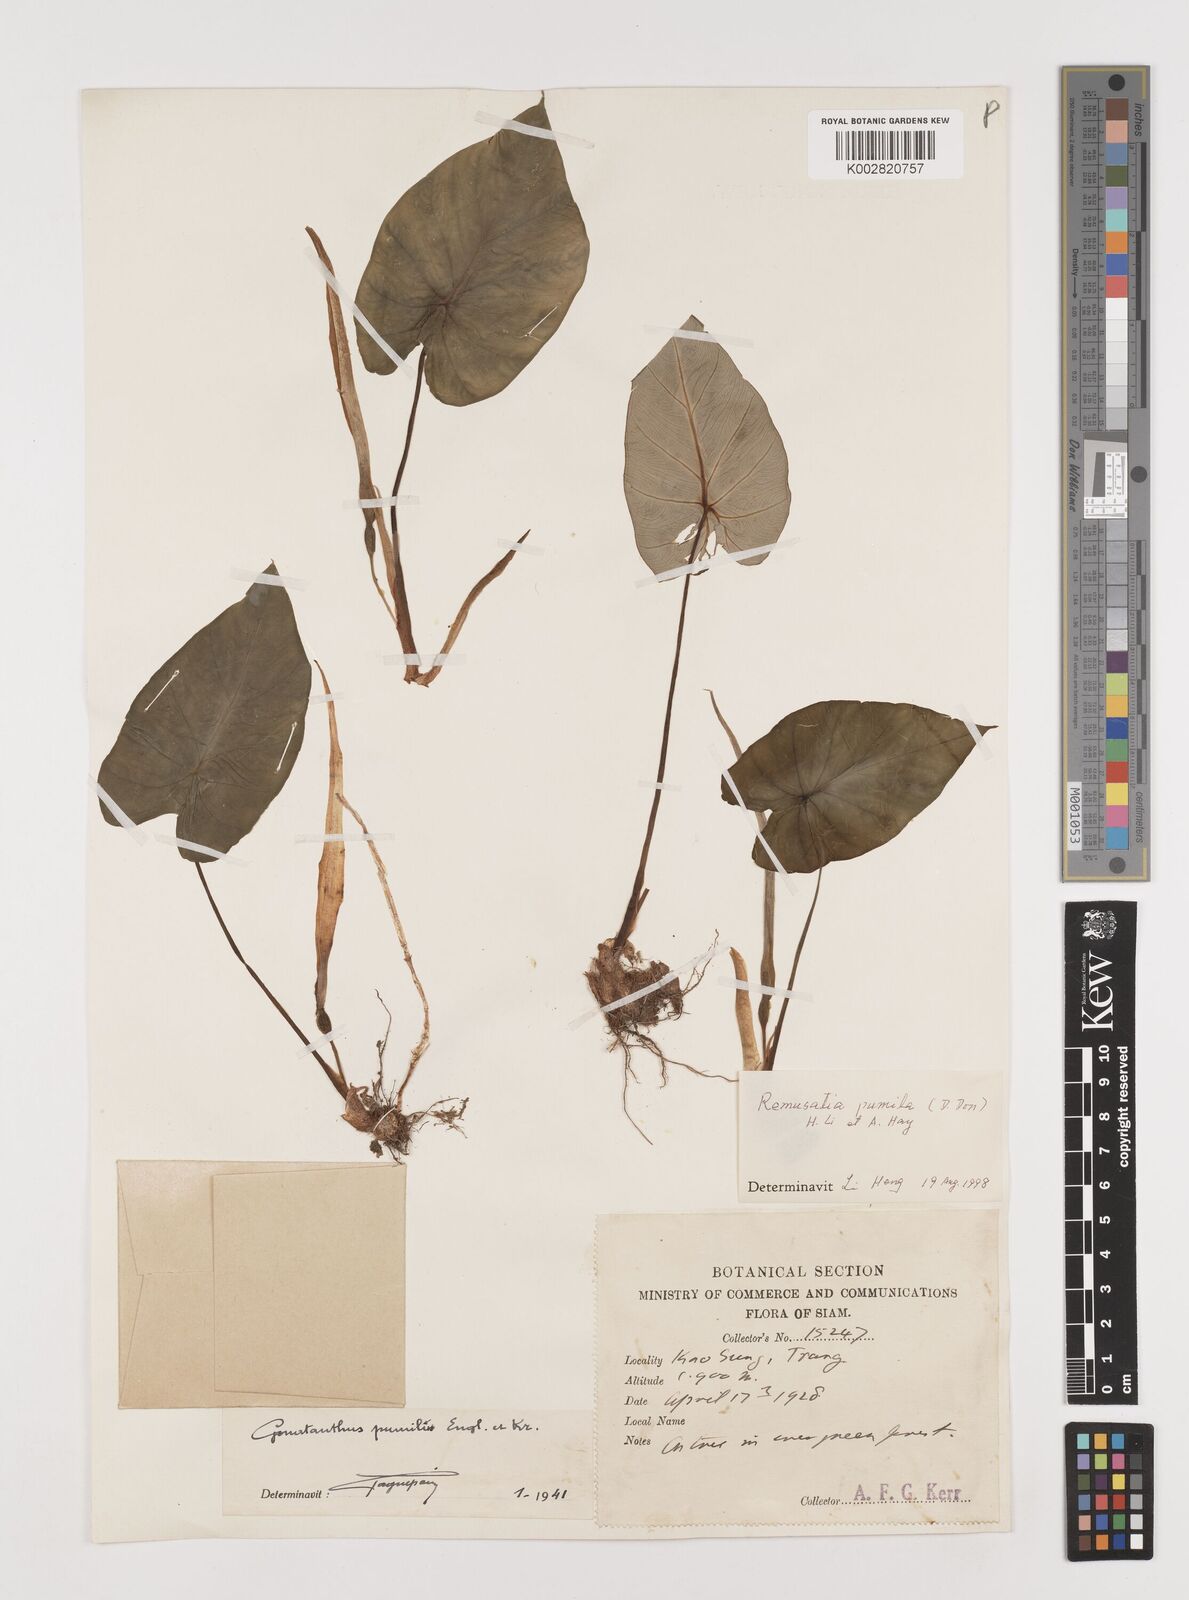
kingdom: Plantae
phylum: Tracheophyta
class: Liliopsida
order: Alismatales
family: Araceae
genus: Remusatia
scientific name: Remusatia pumila
